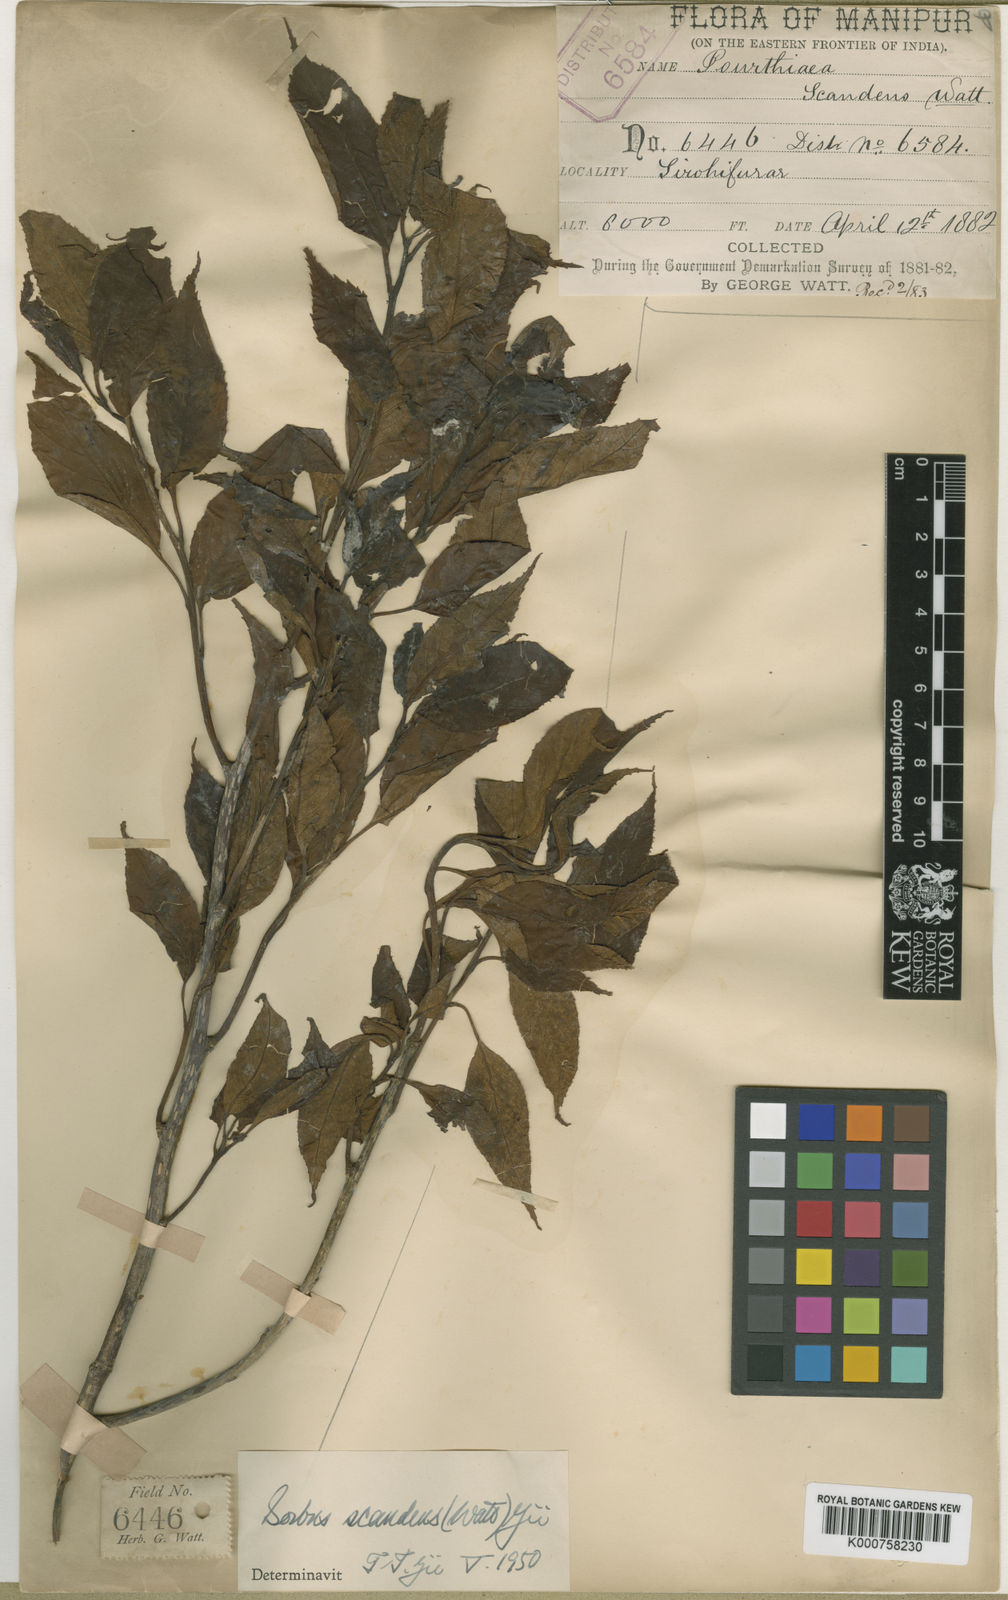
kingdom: Plantae
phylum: Tracheophyta
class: Magnoliopsida
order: Rosales
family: Rosaceae
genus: Sorbus
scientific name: Sorbus
